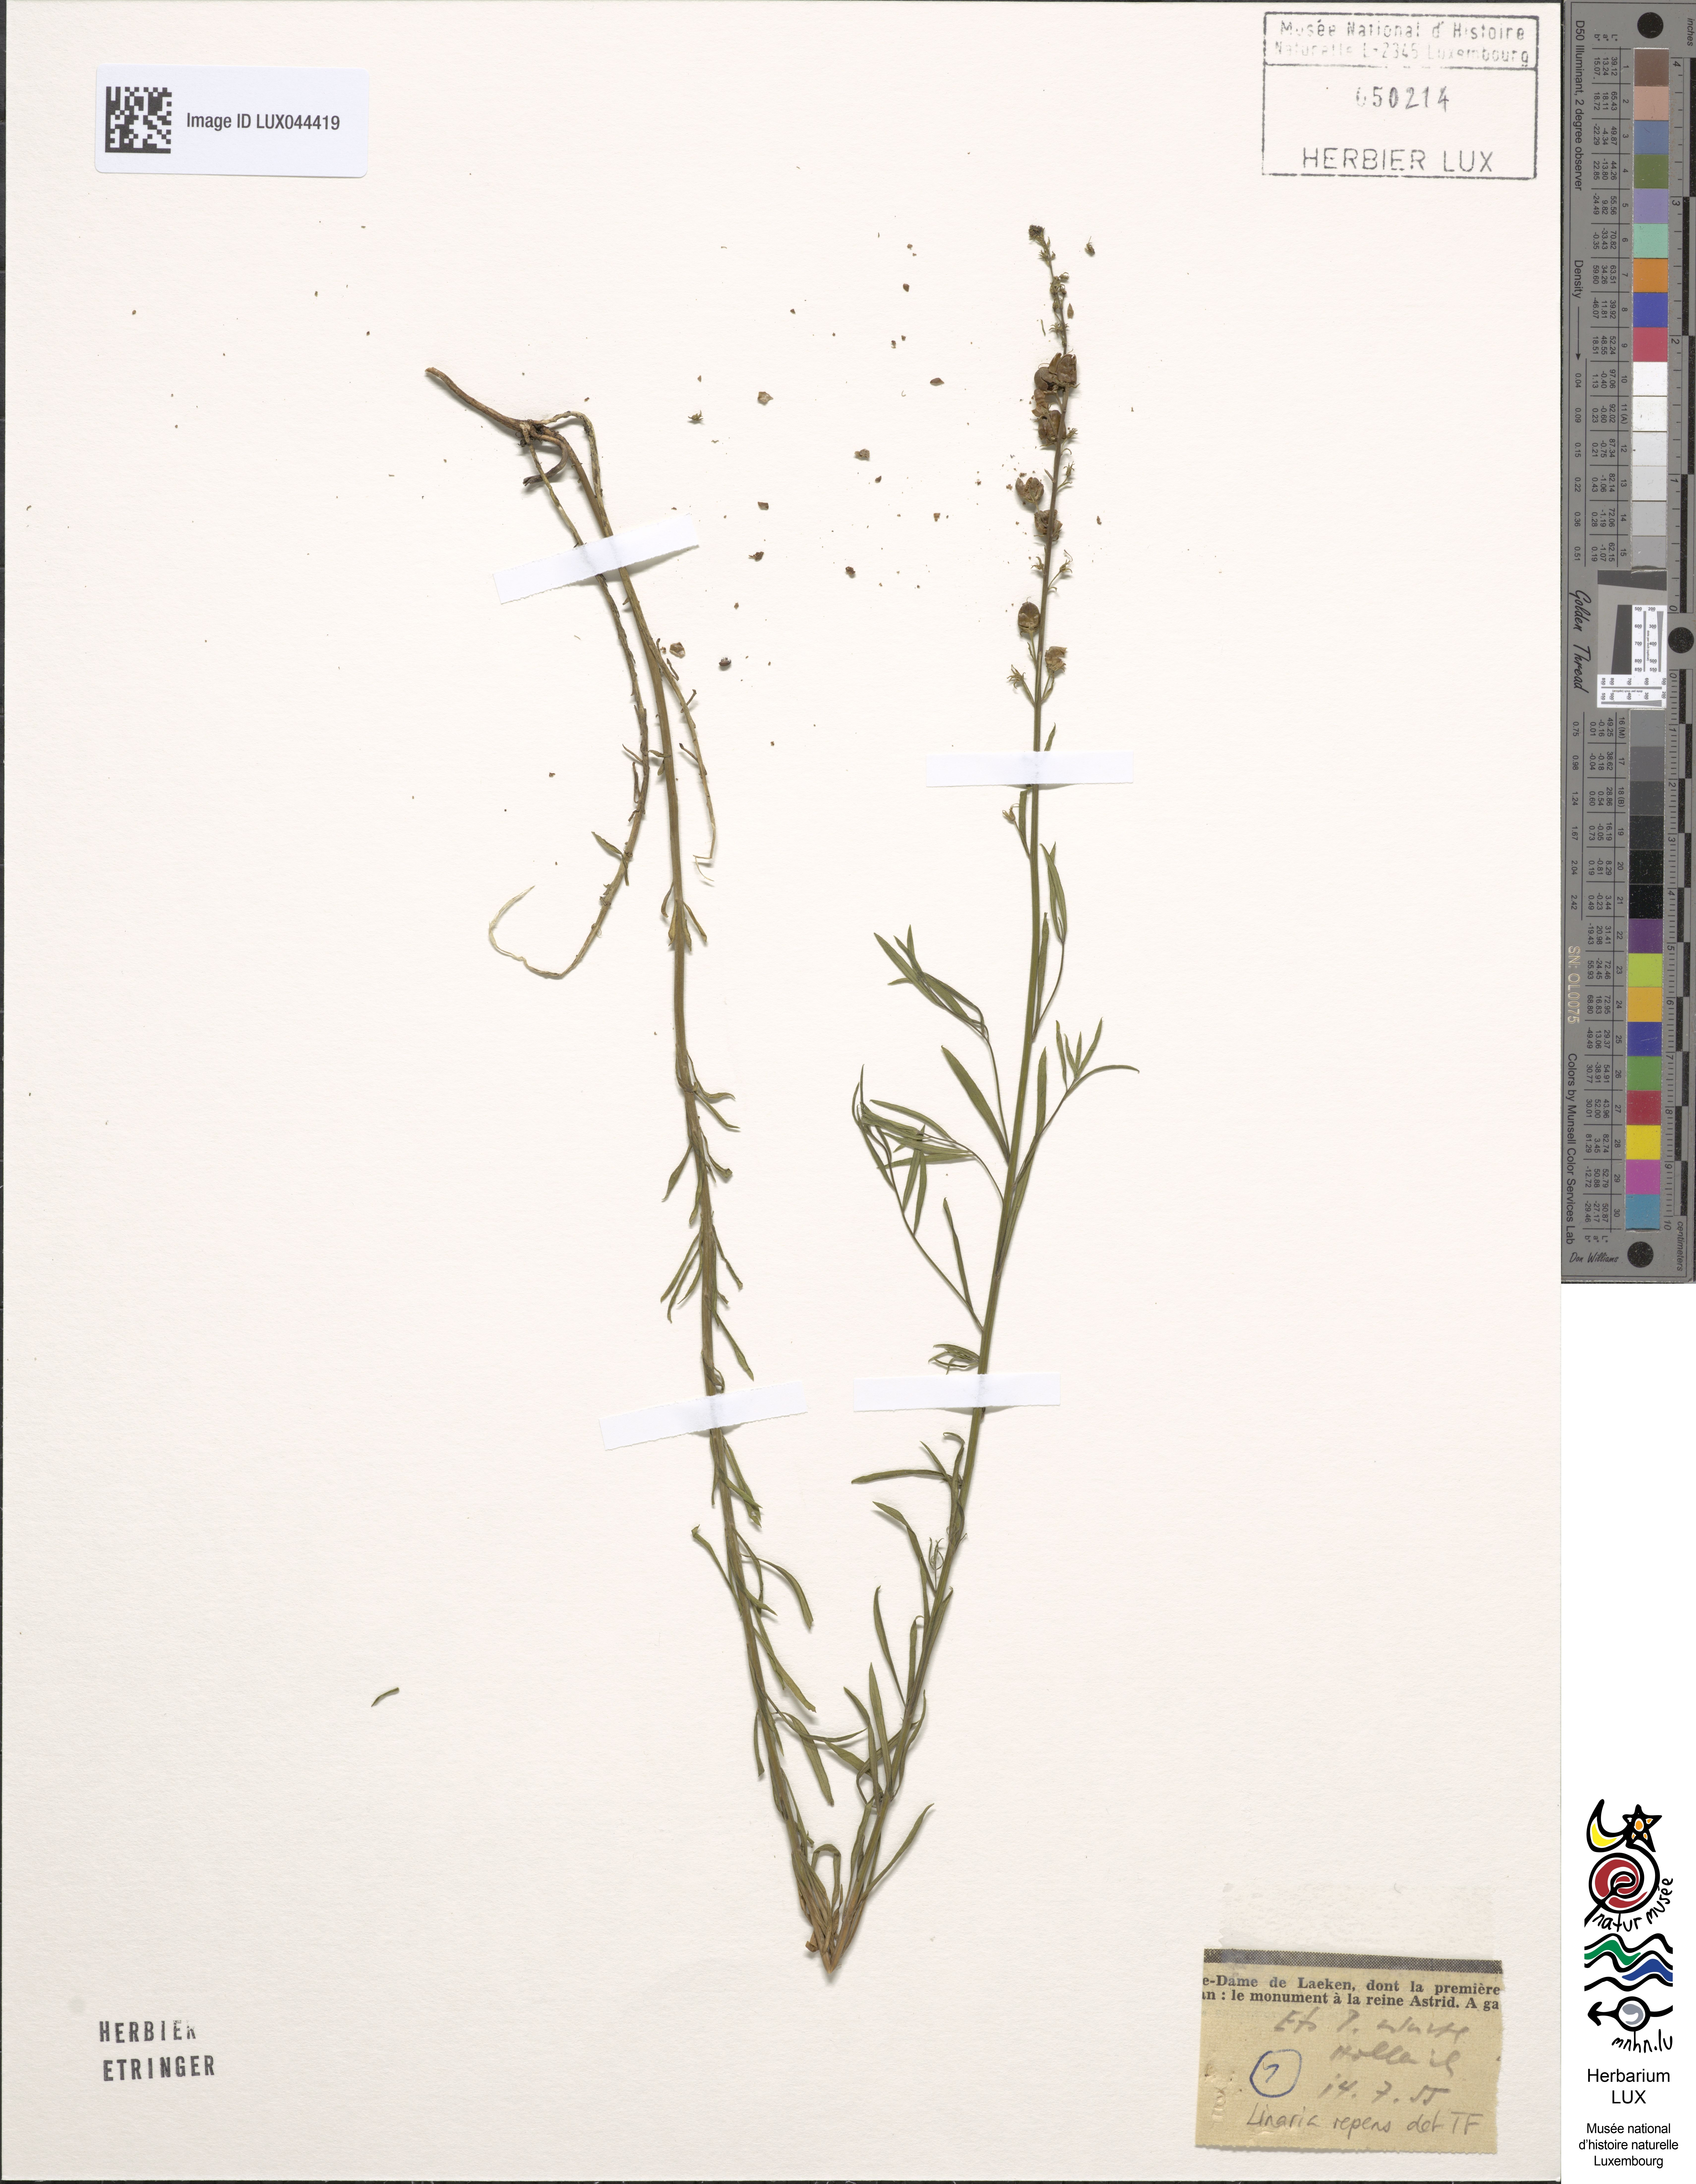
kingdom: Plantae
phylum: Tracheophyta
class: Magnoliopsida
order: Lamiales
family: Plantaginaceae
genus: Linaria
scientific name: Linaria repens
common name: Pale toadflax
